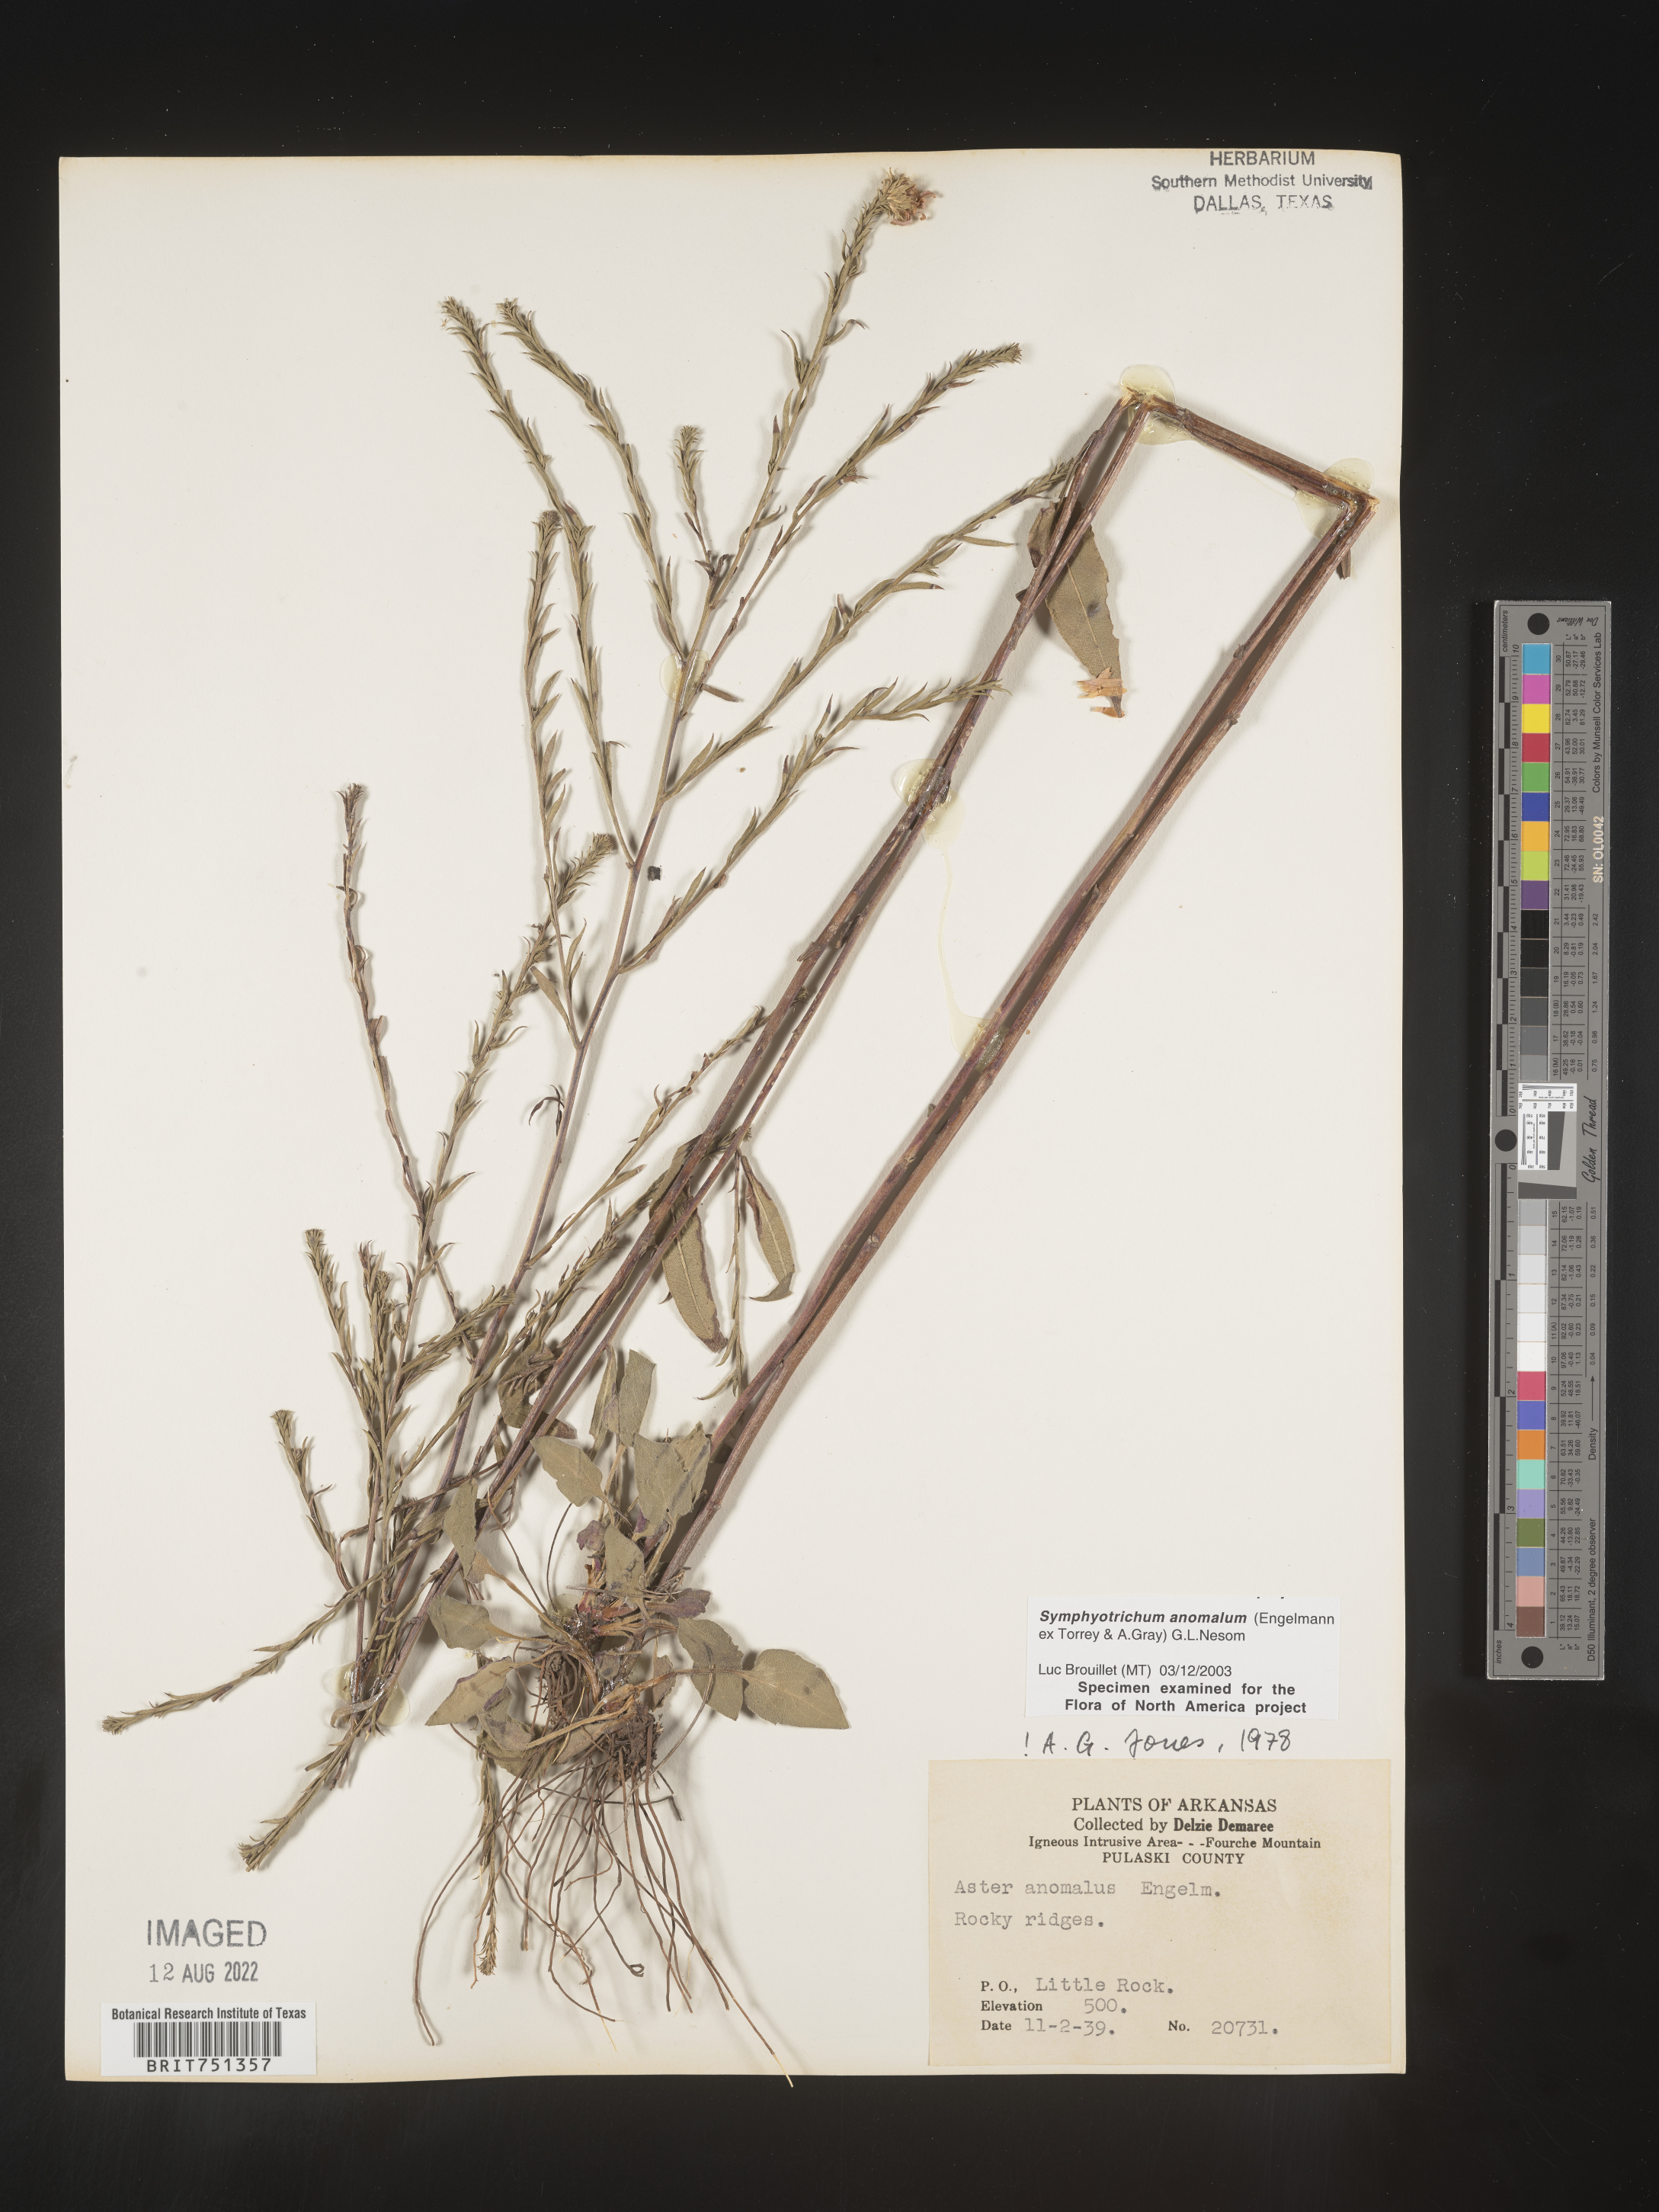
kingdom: Plantae
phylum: Tracheophyta
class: Magnoliopsida
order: Asterales
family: Asteraceae
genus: Symphyotrichum
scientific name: Symphyotrichum anomalum
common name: Many-ray aster
